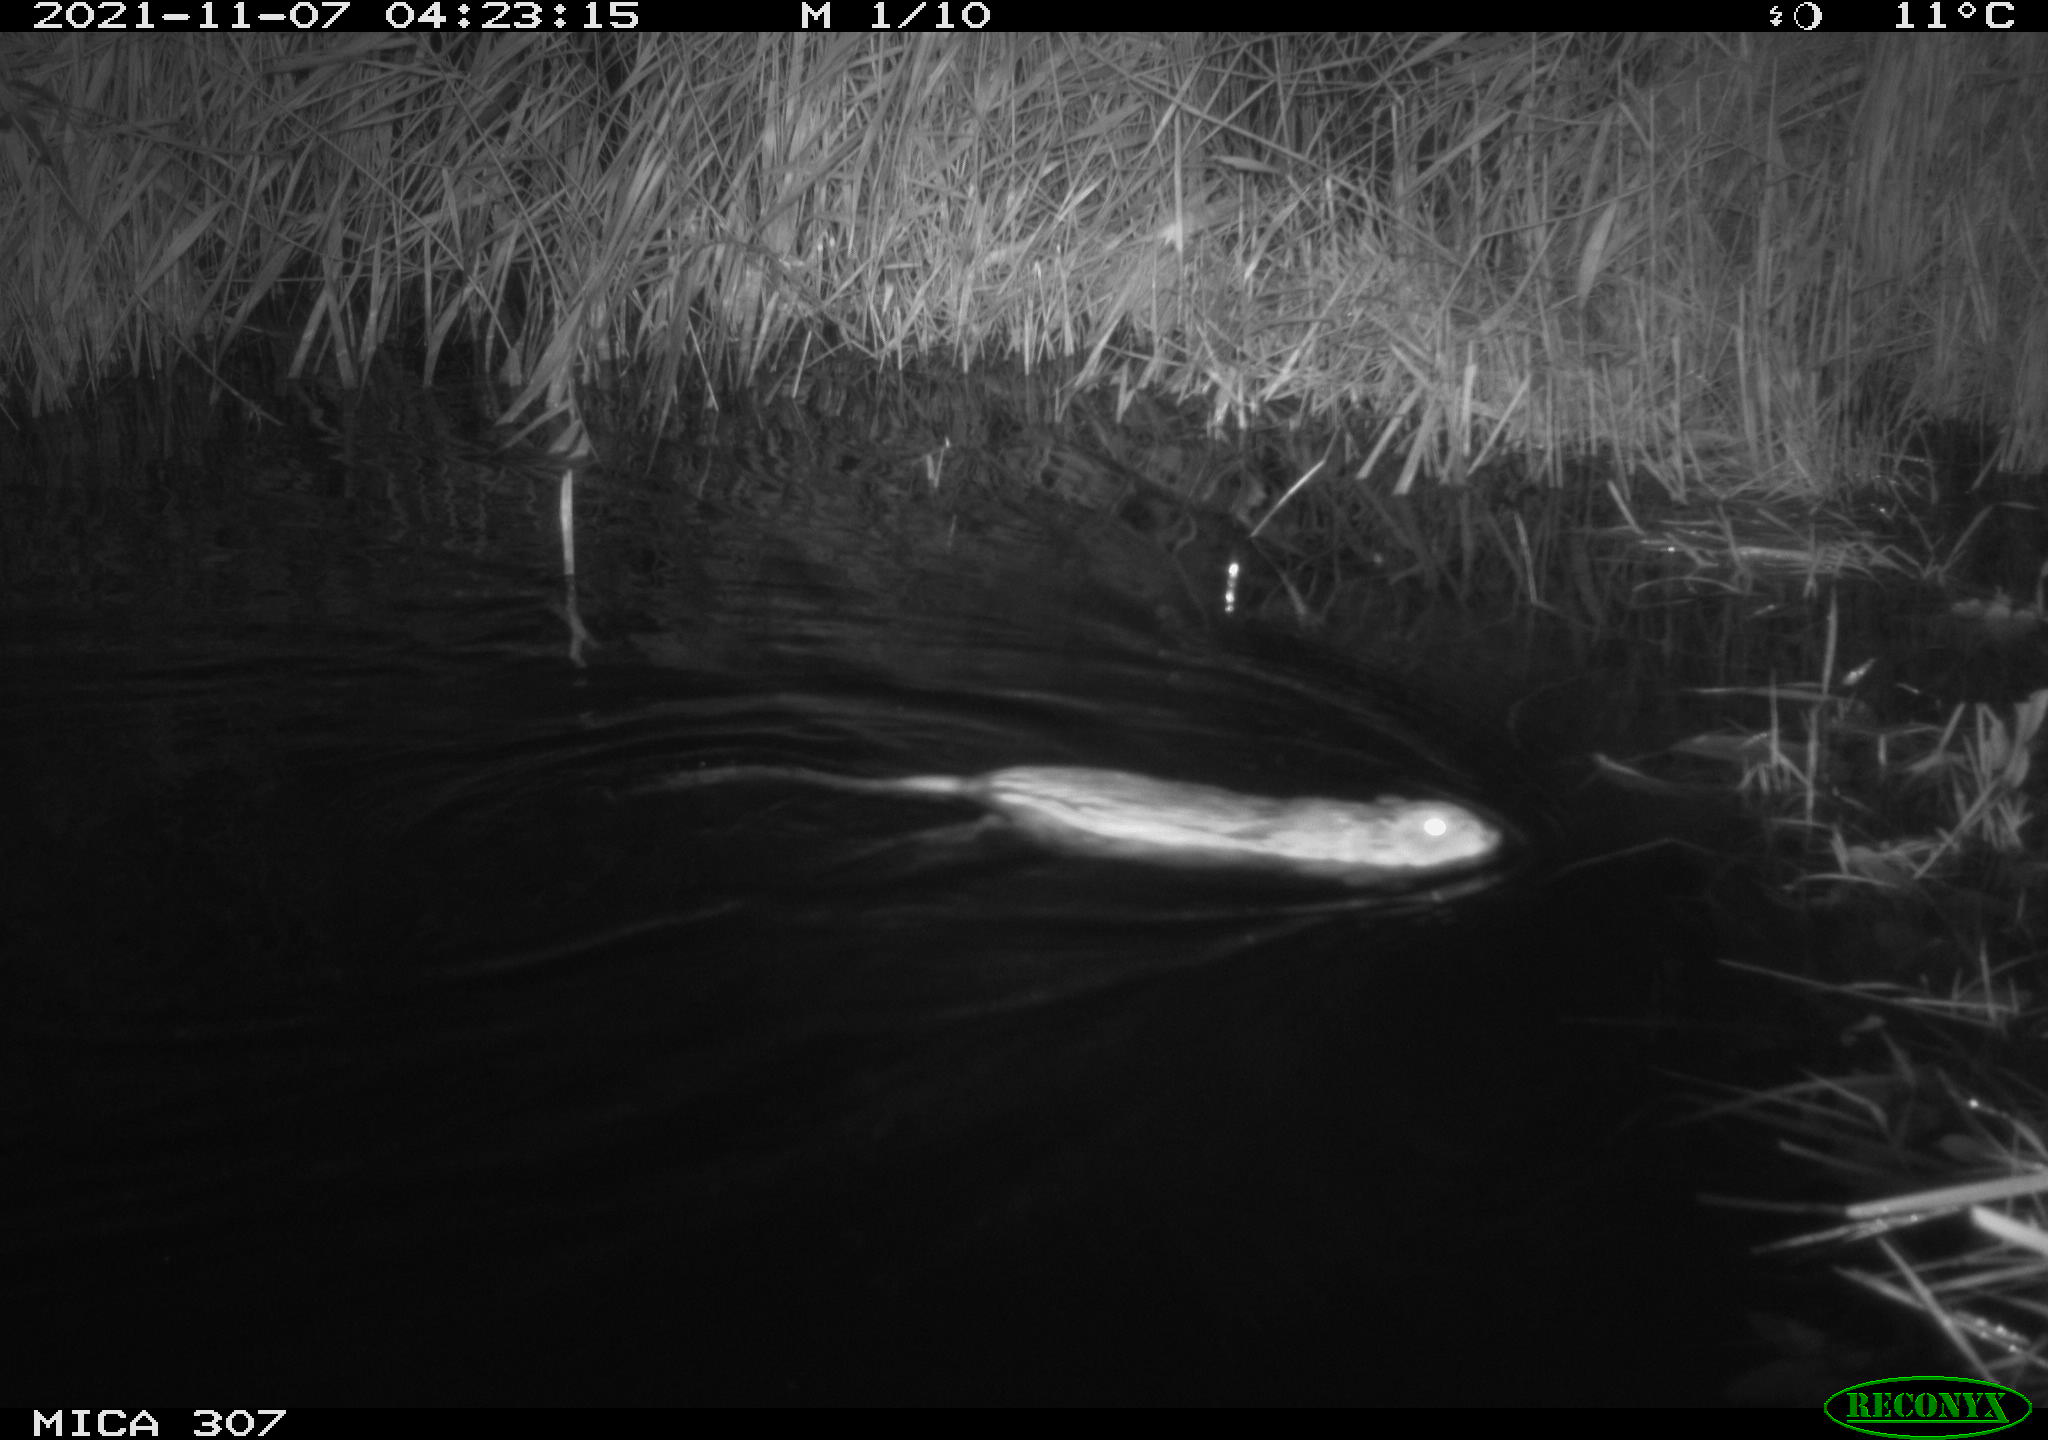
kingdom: Animalia
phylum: Chordata
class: Mammalia
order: Rodentia
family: Cricetidae
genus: Ondatra
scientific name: Ondatra zibethicus
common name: Muskrat
